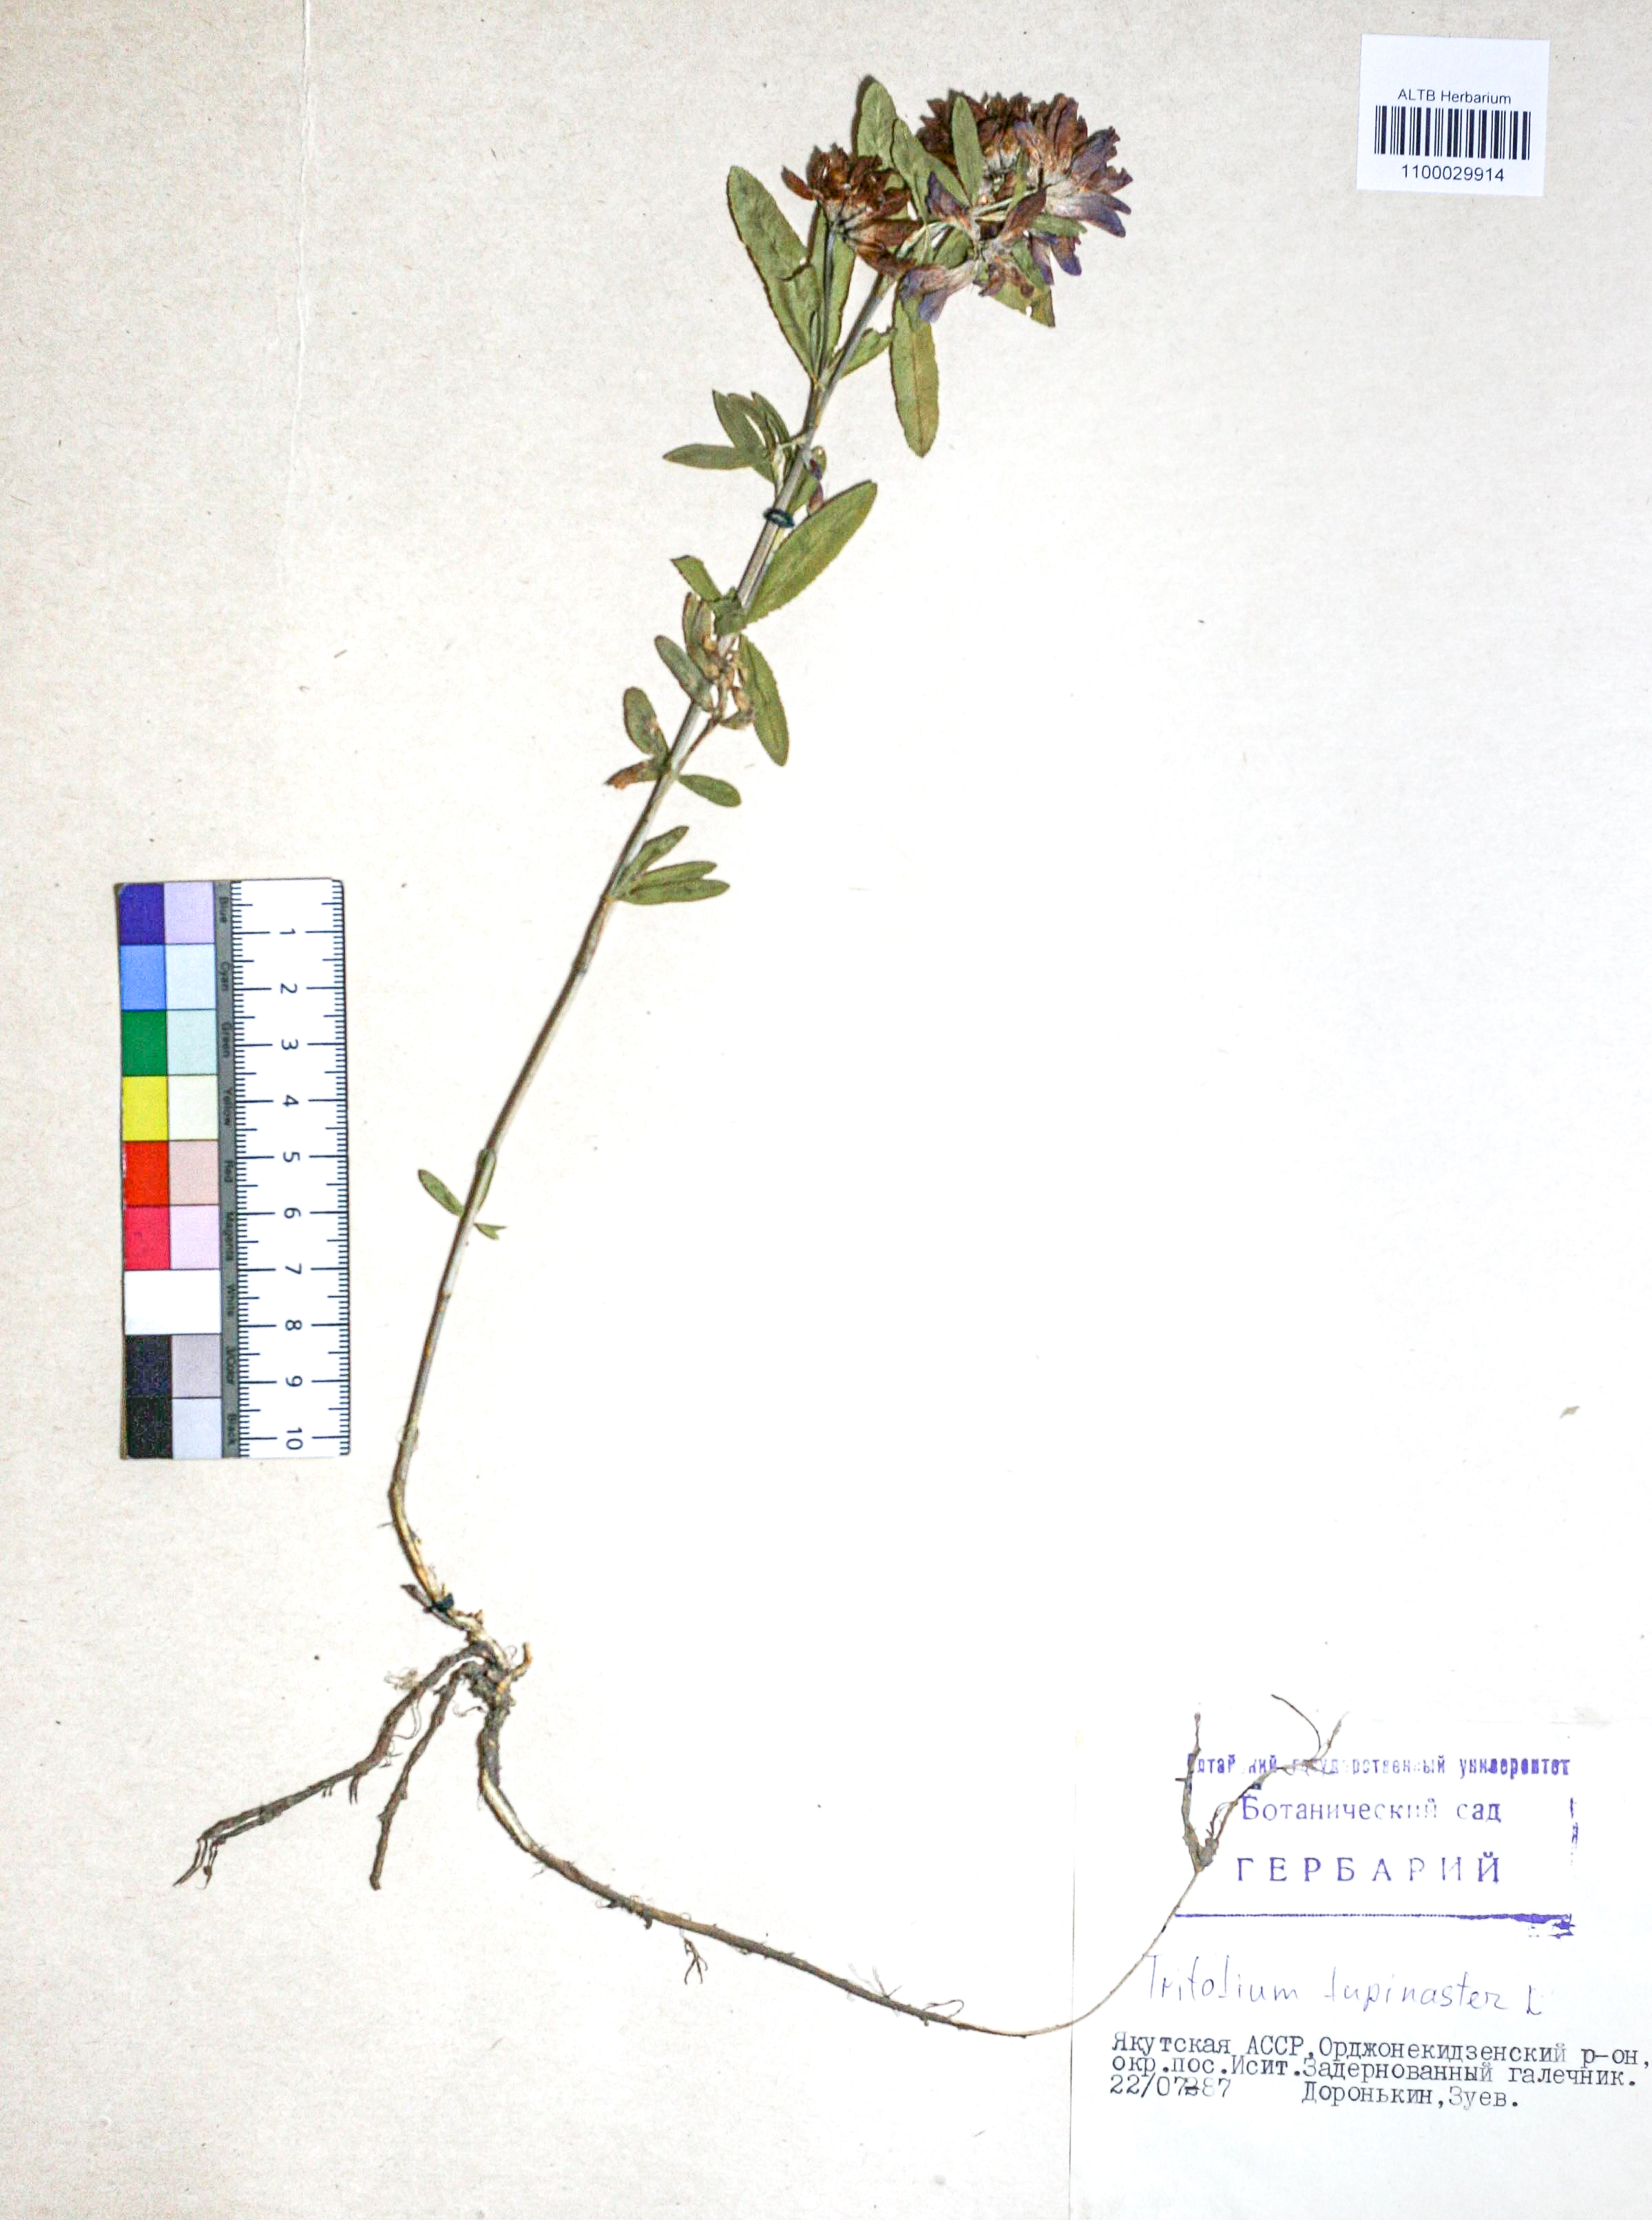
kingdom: Plantae
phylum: Tracheophyta
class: Magnoliopsida
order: Fabales
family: Fabaceae
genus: Trifolium
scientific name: Trifolium lupinaster
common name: Lupine clover
